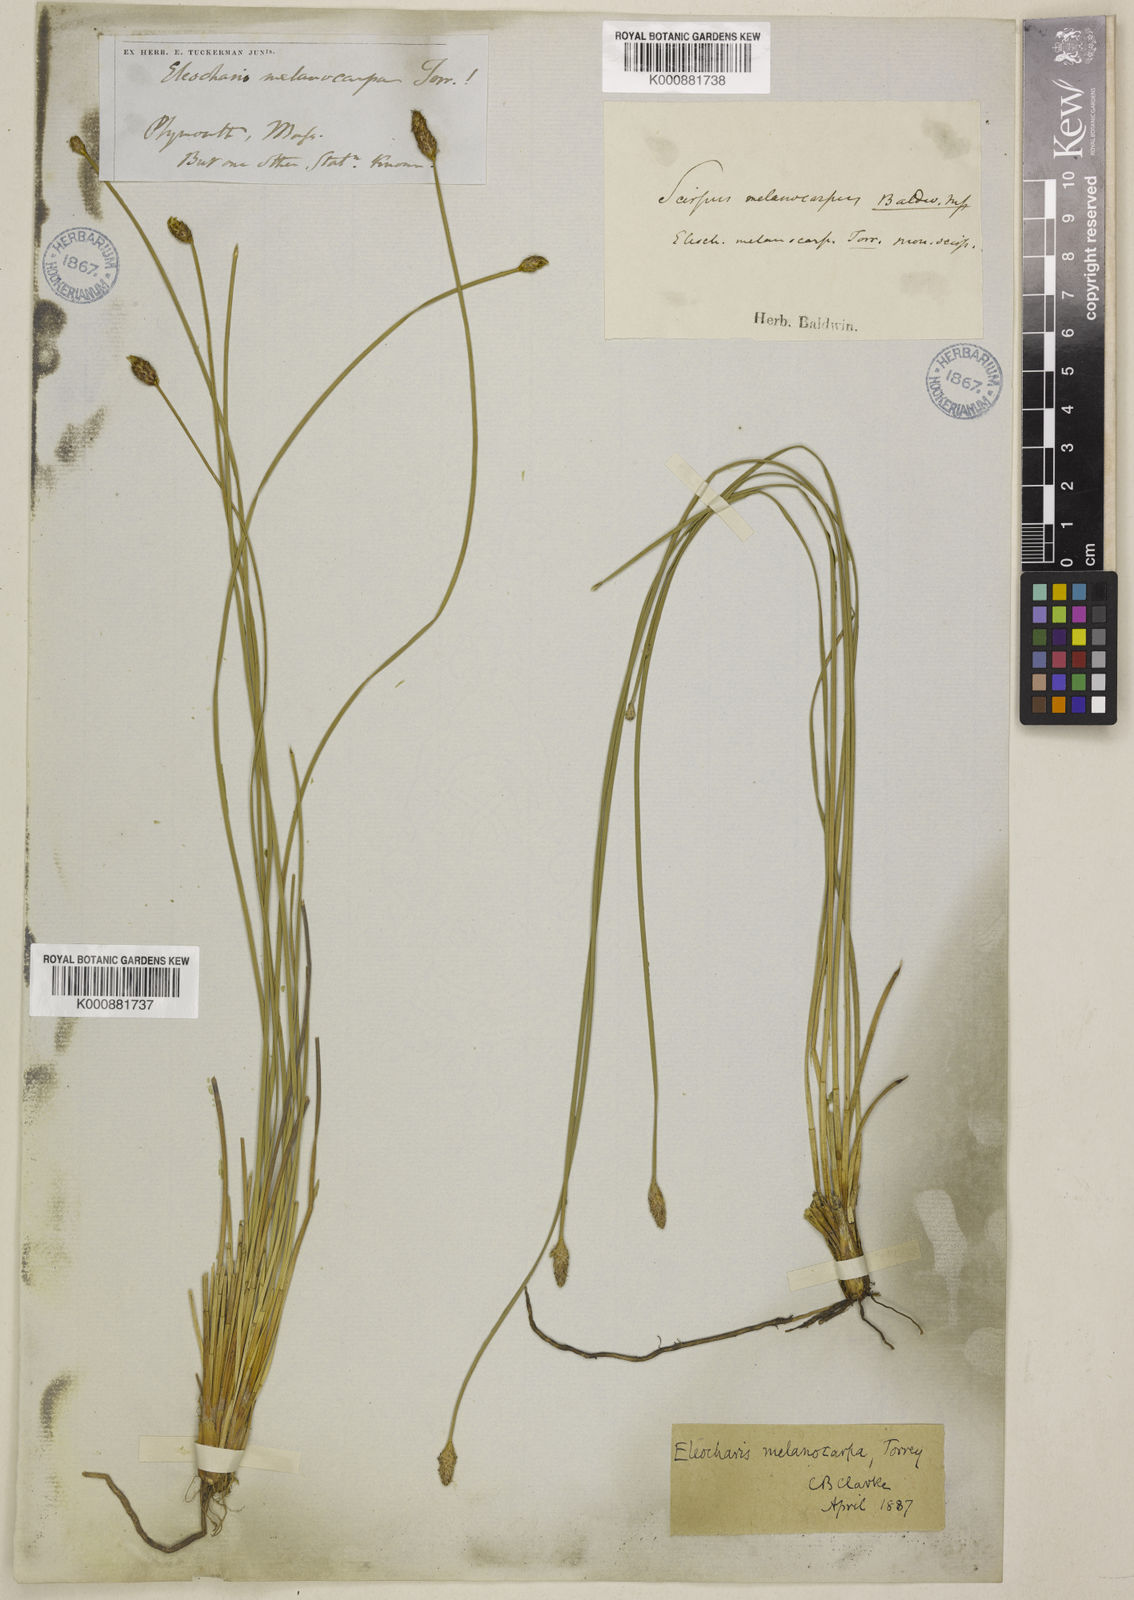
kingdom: Plantae
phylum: Tracheophyta
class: Liliopsida
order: Poales
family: Cyperaceae
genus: Eleocharis
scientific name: Eleocharis melanocarpa
